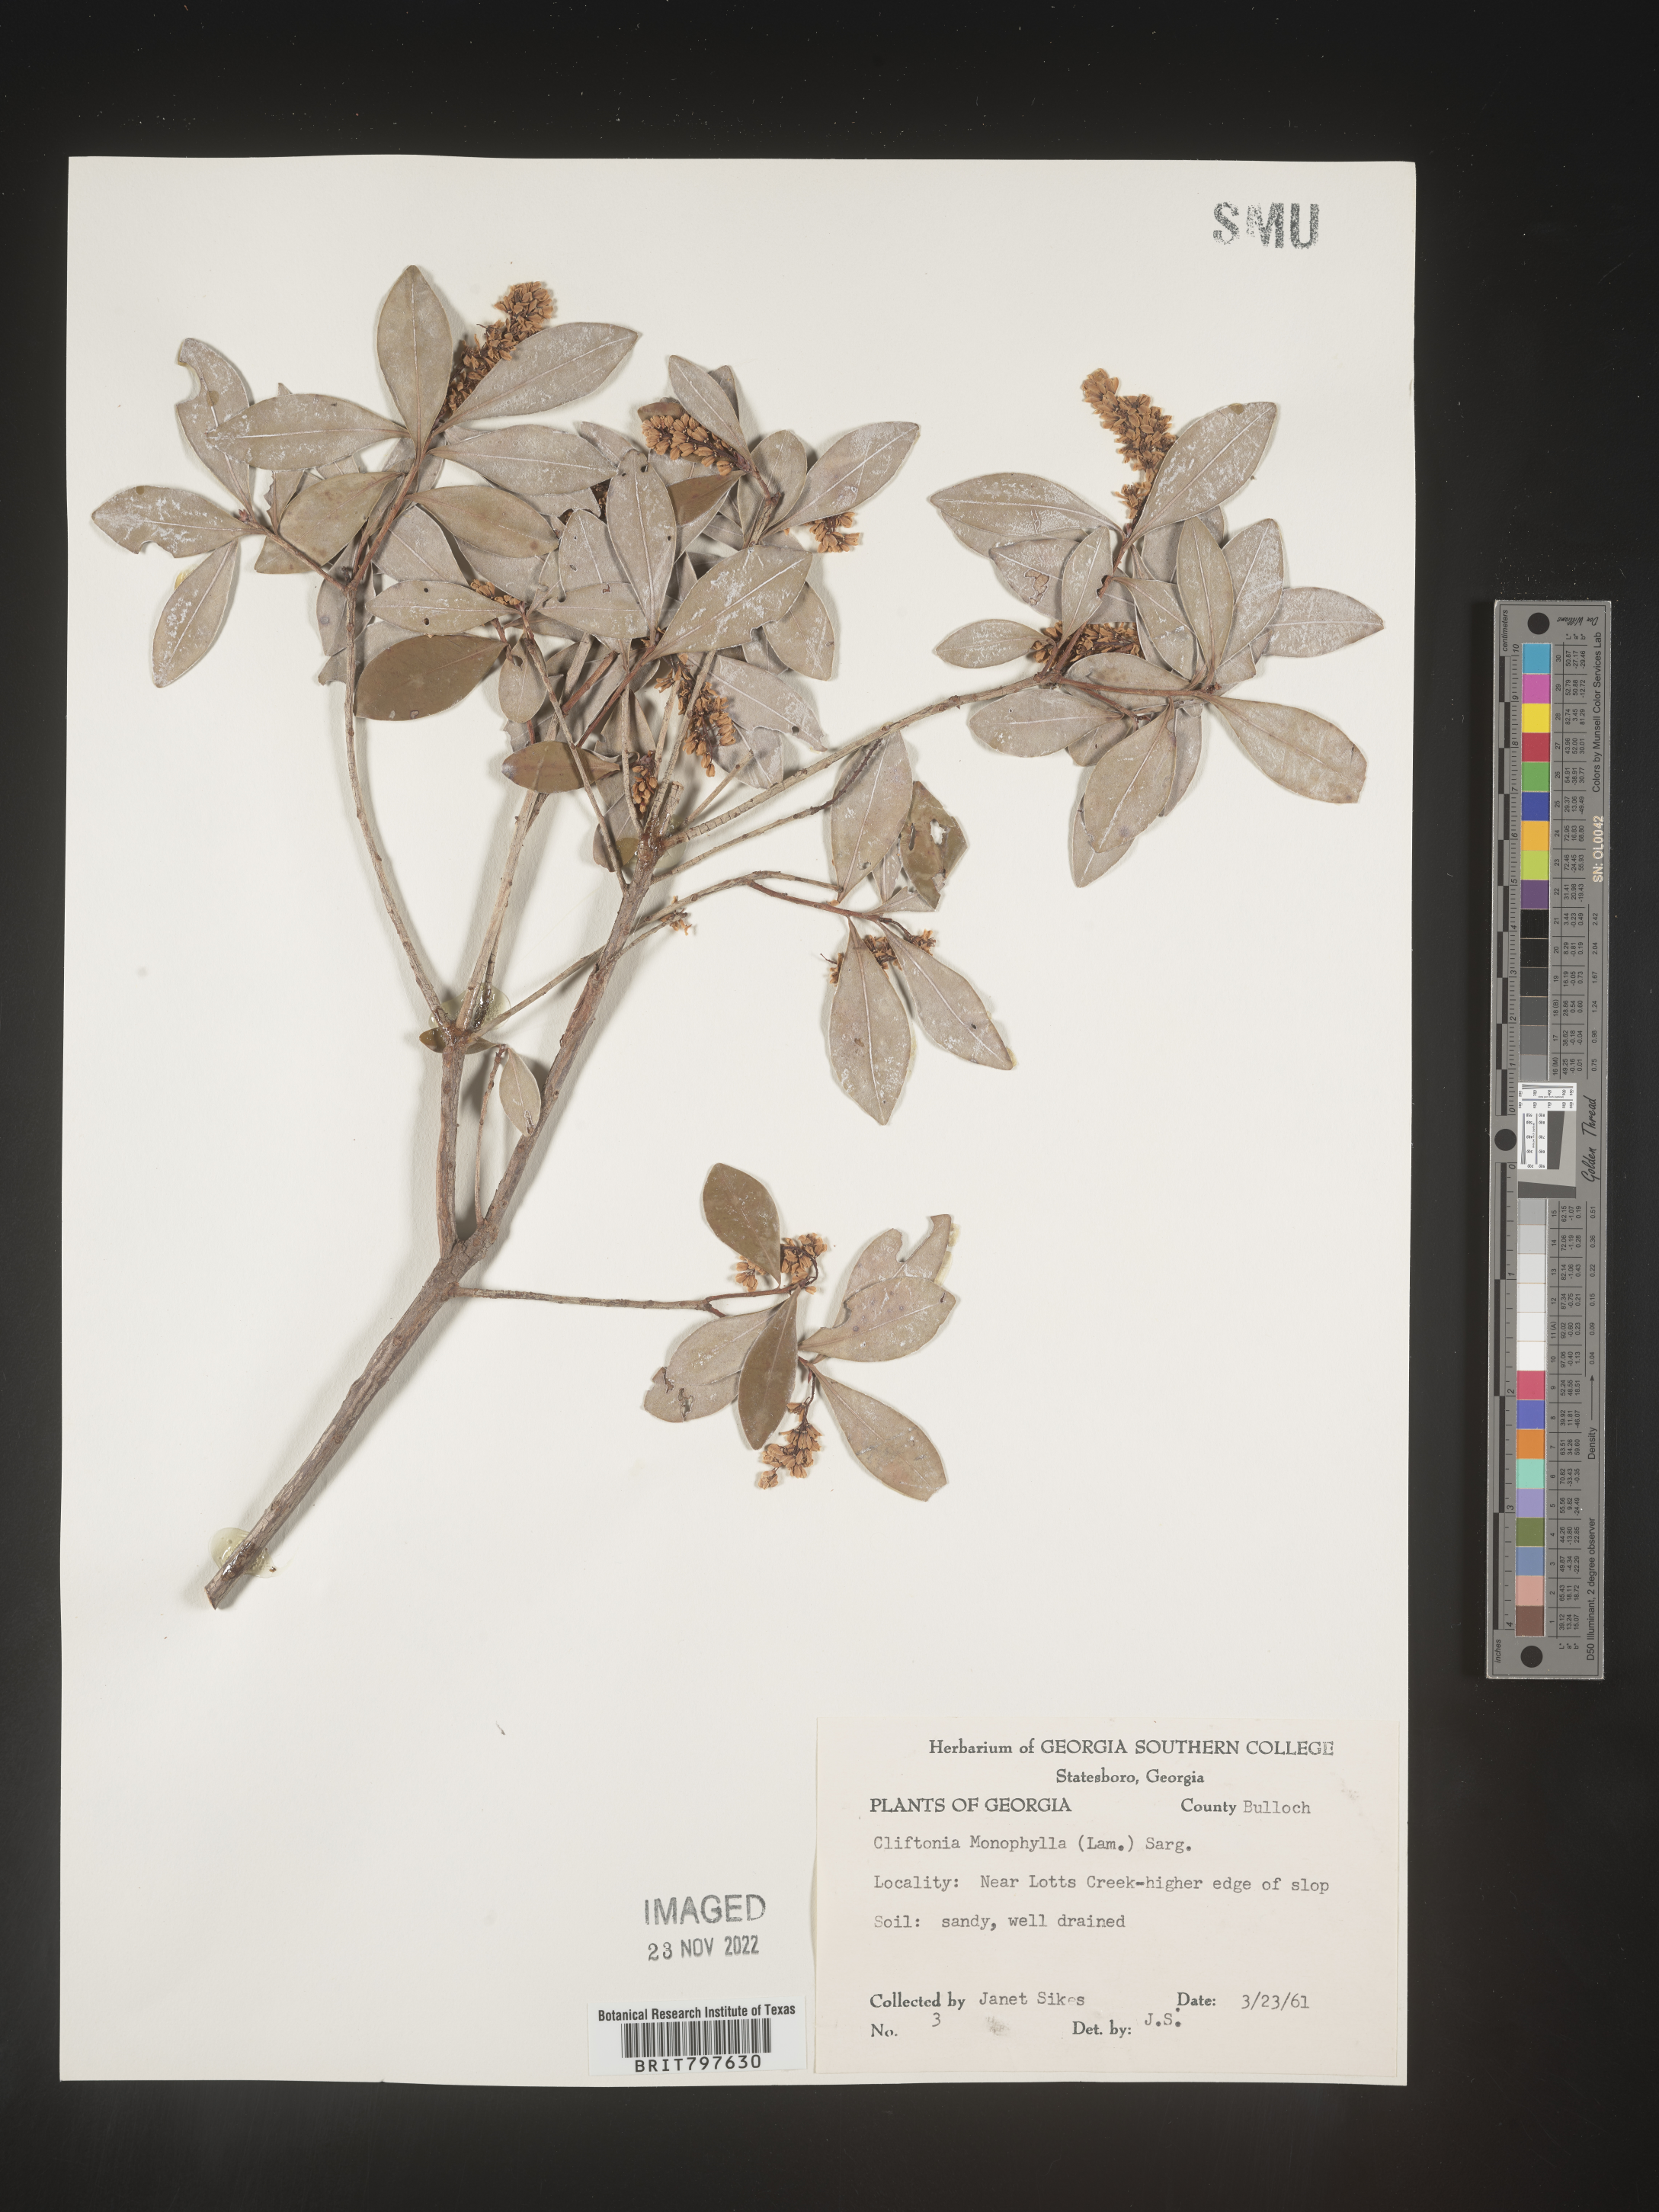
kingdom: Plantae
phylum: Tracheophyta
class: Magnoliopsida
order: Ericales
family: Cyrillaceae
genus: Cliftonia
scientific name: Cliftonia monophylla
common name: Titi
